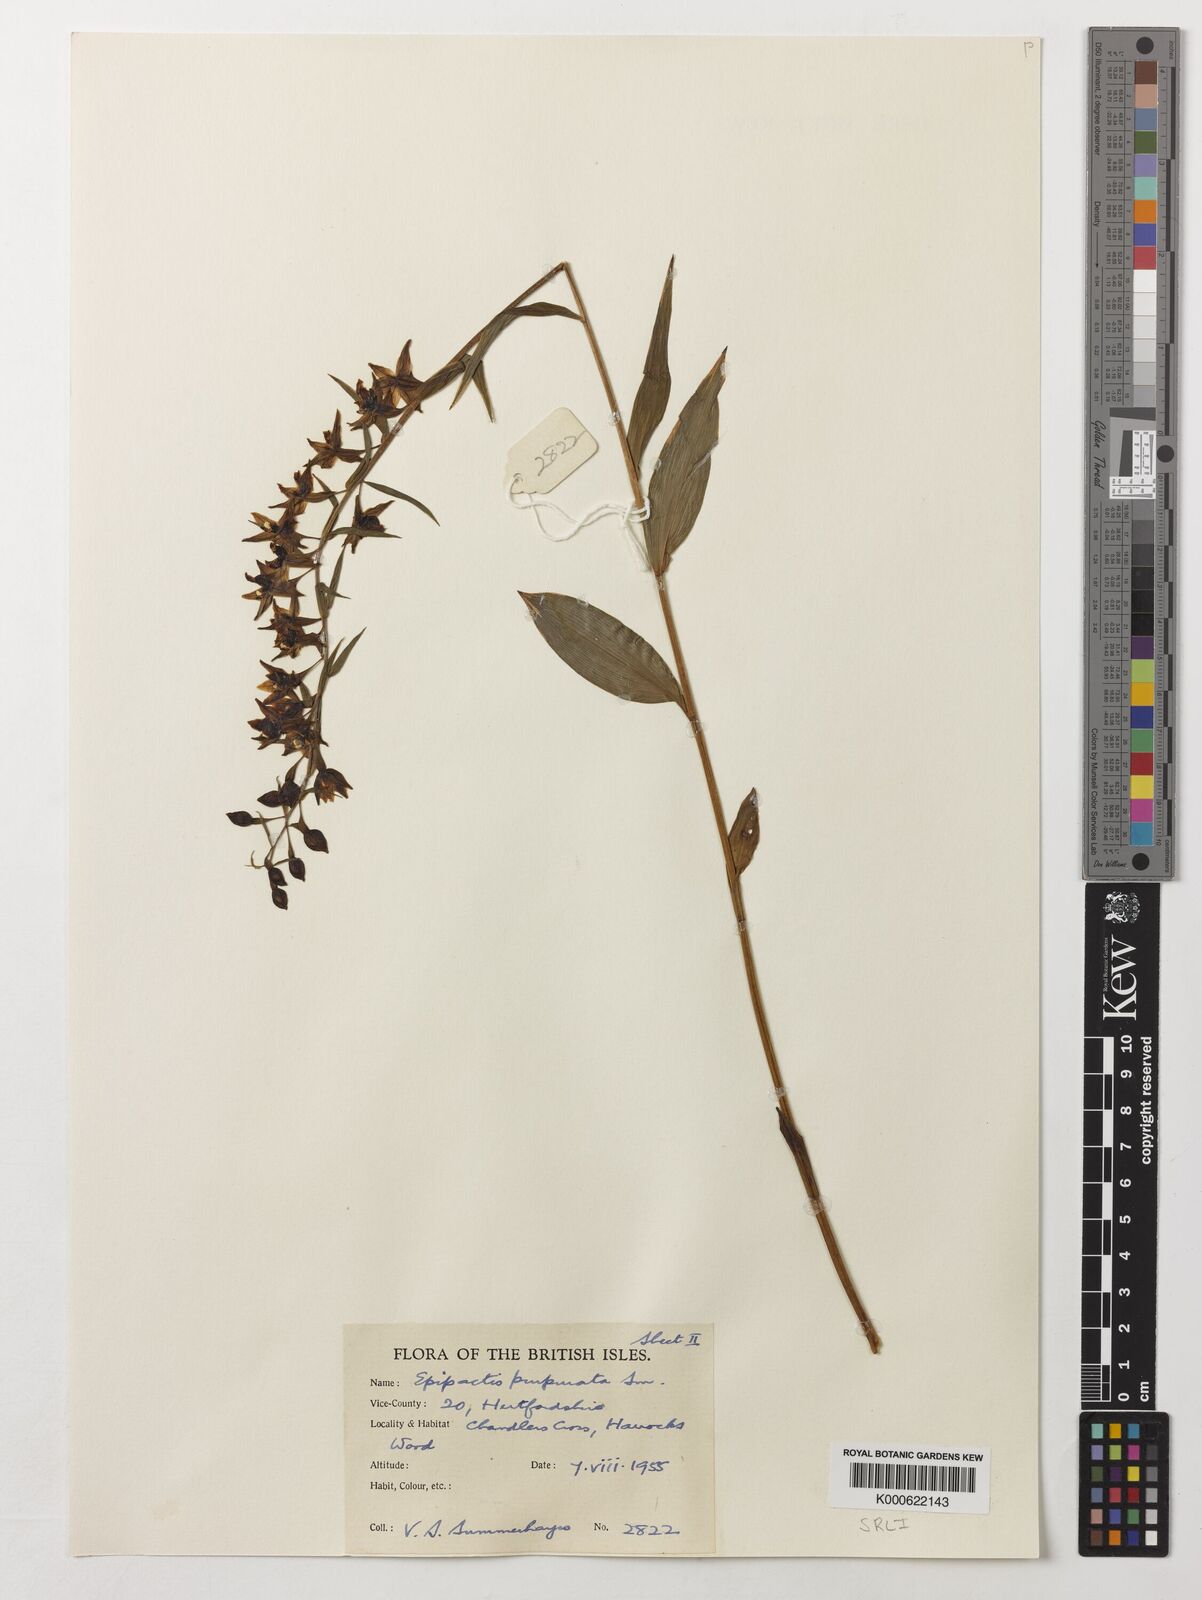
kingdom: Plantae
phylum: Tracheophyta
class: Liliopsida
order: Asparagales
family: Orchidaceae
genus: Epipactis
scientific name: Epipactis purpurata
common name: Violet helleborine
